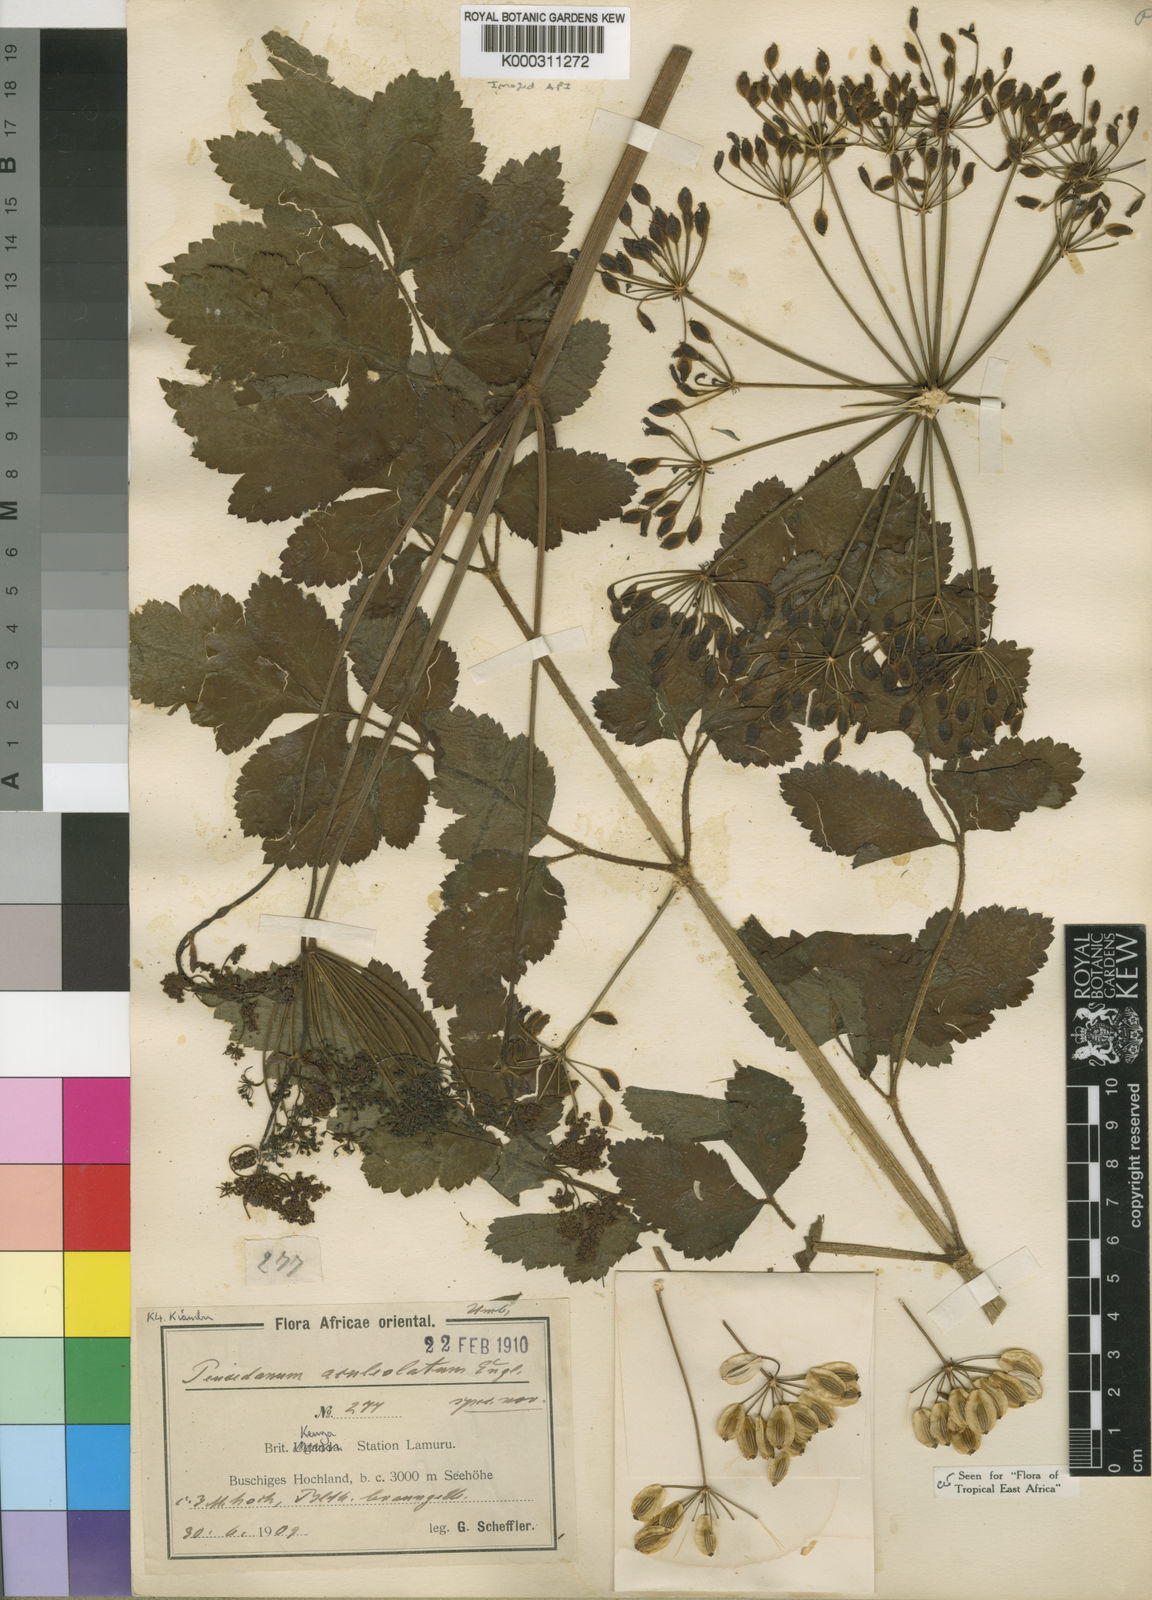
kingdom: Plantae
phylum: Tracheophyta
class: Magnoliopsida
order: Apiales
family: Apiaceae
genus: Afroligusticum
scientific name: Afroligusticum aculeolatum
